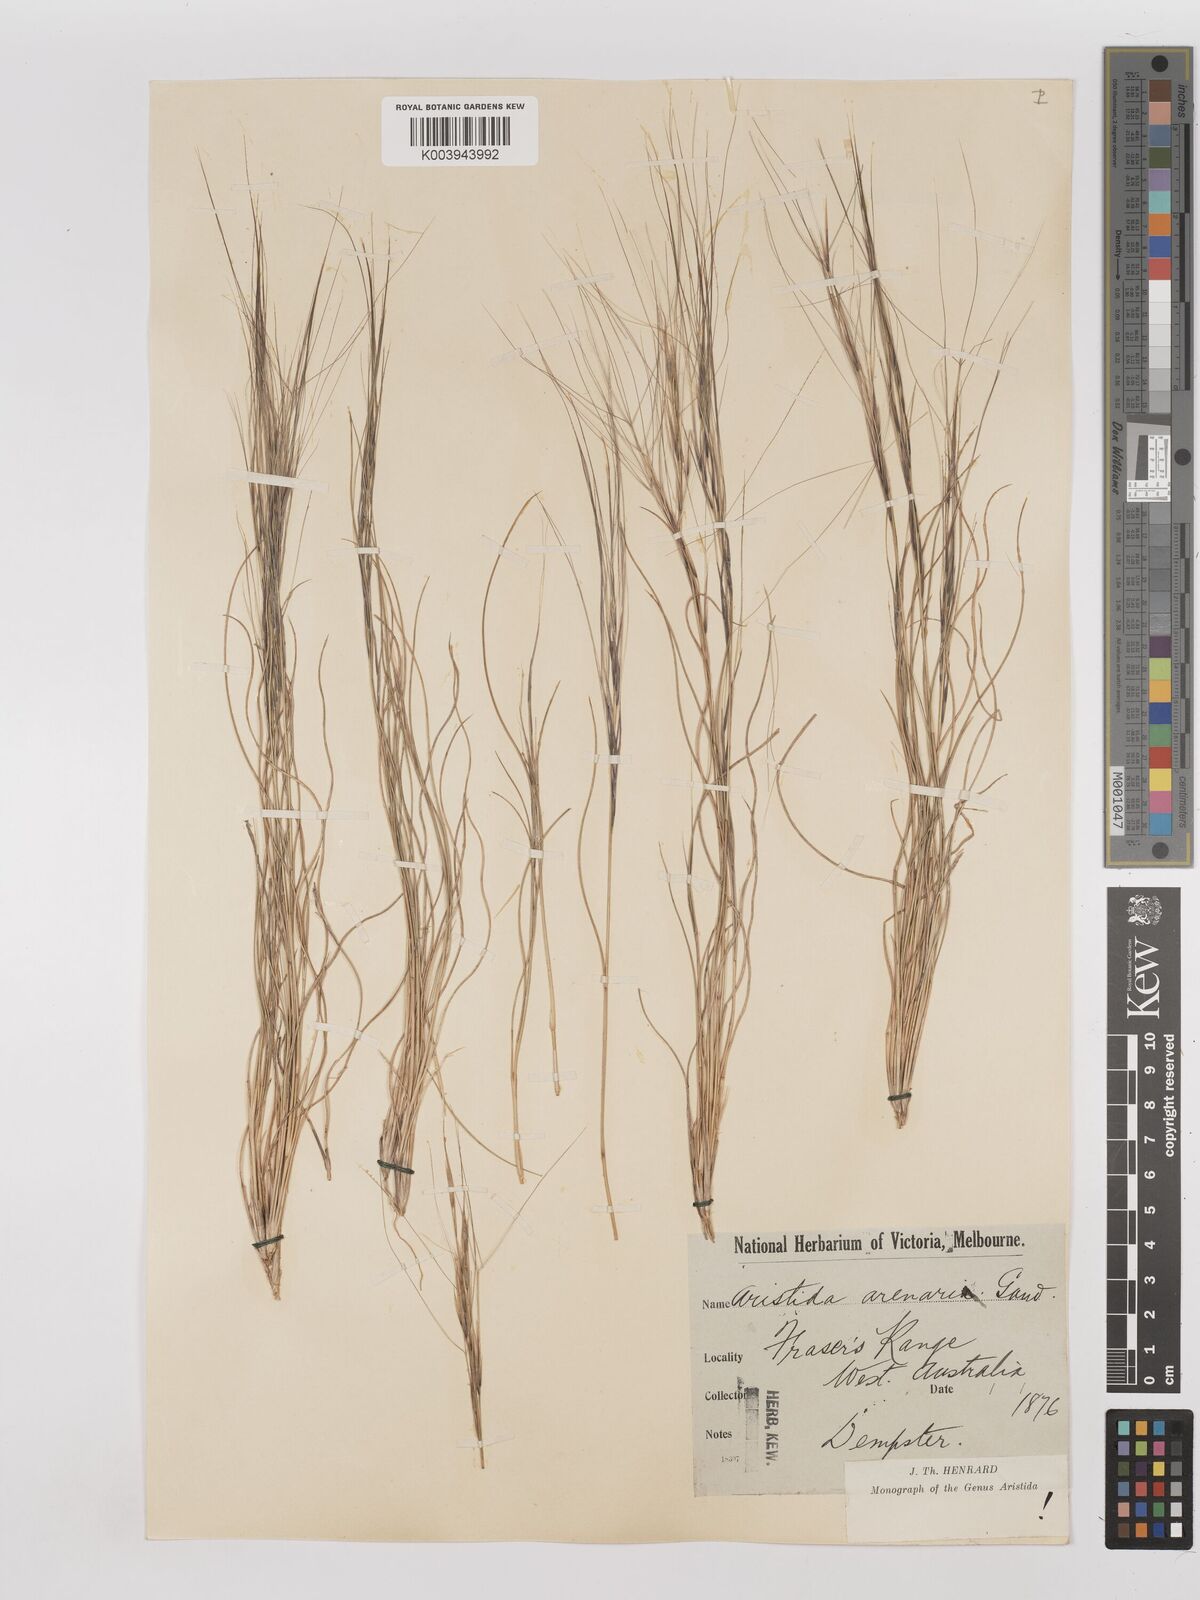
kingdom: Plantae
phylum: Tracheophyta
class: Liliopsida
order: Poales
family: Poaceae
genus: Aristida
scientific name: Aristida contorta
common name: Bunch kerosene grass
